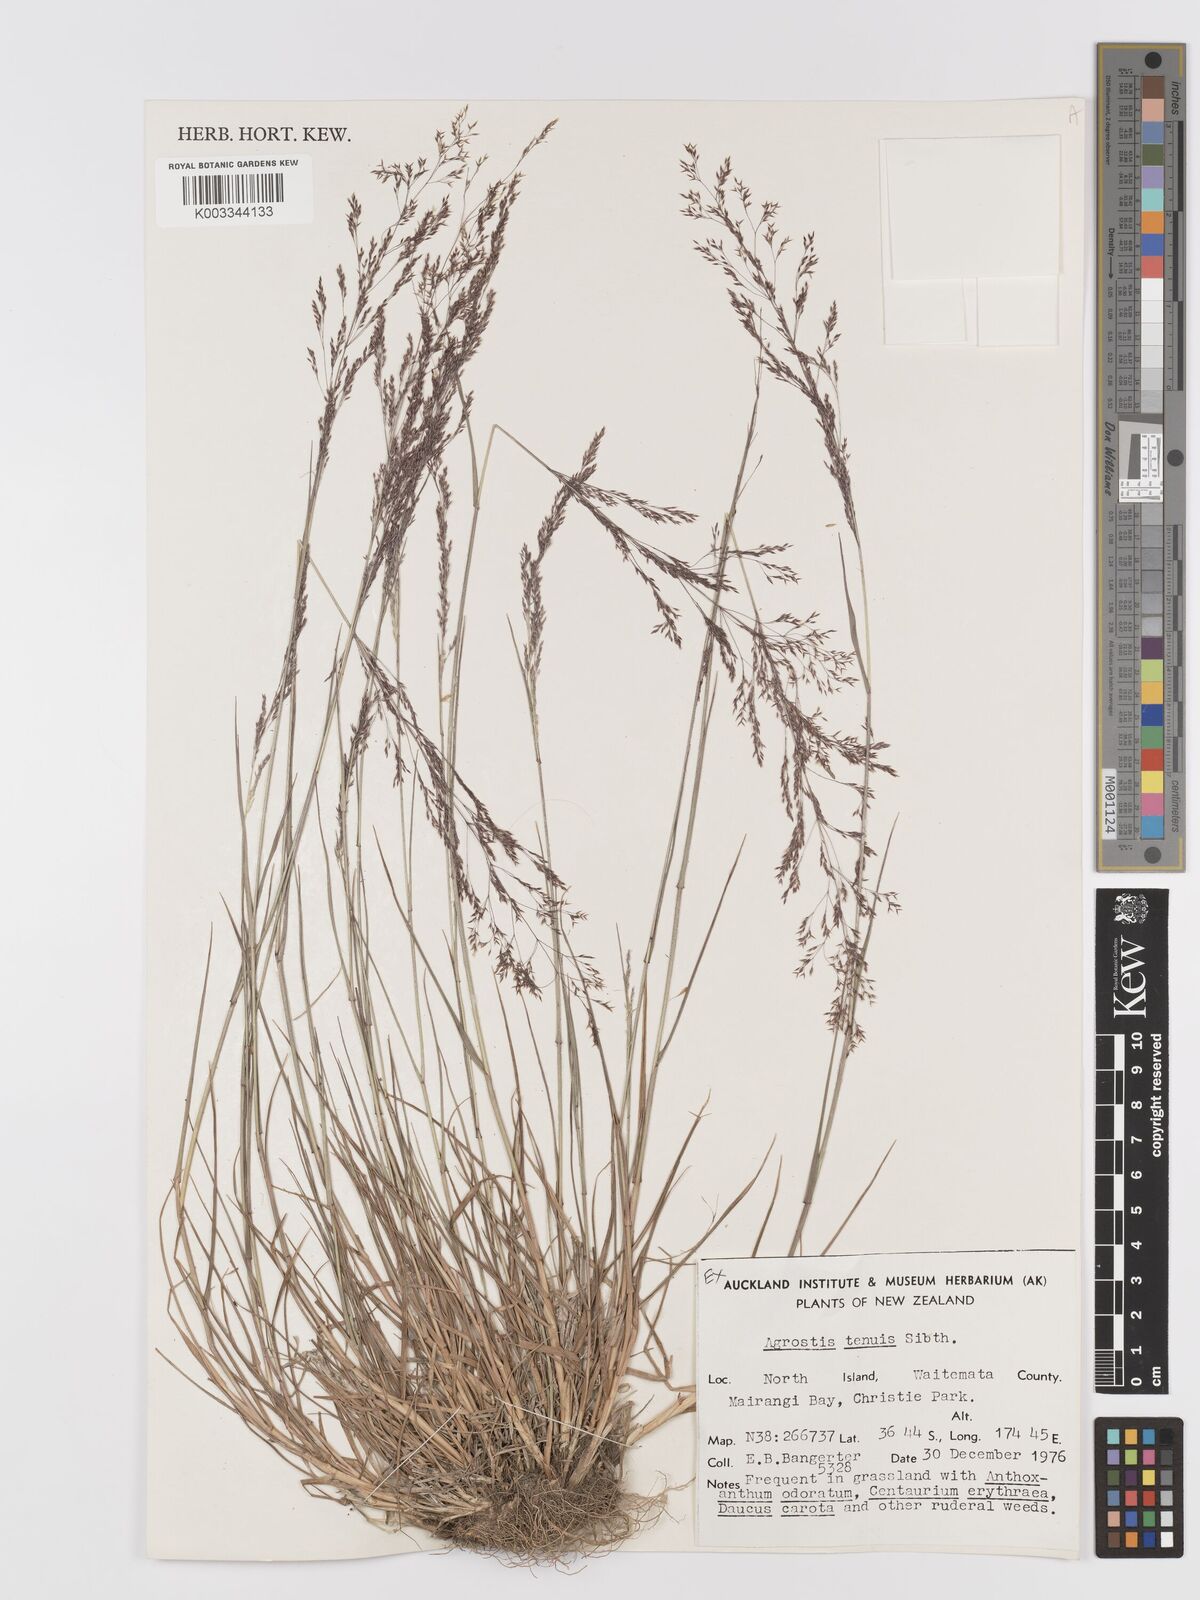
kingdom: Plantae
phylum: Tracheophyta
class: Liliopsida
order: Poales
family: Poaceae
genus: Agrostis
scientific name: Agrostis capillaris
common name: Colonial bentgrass
